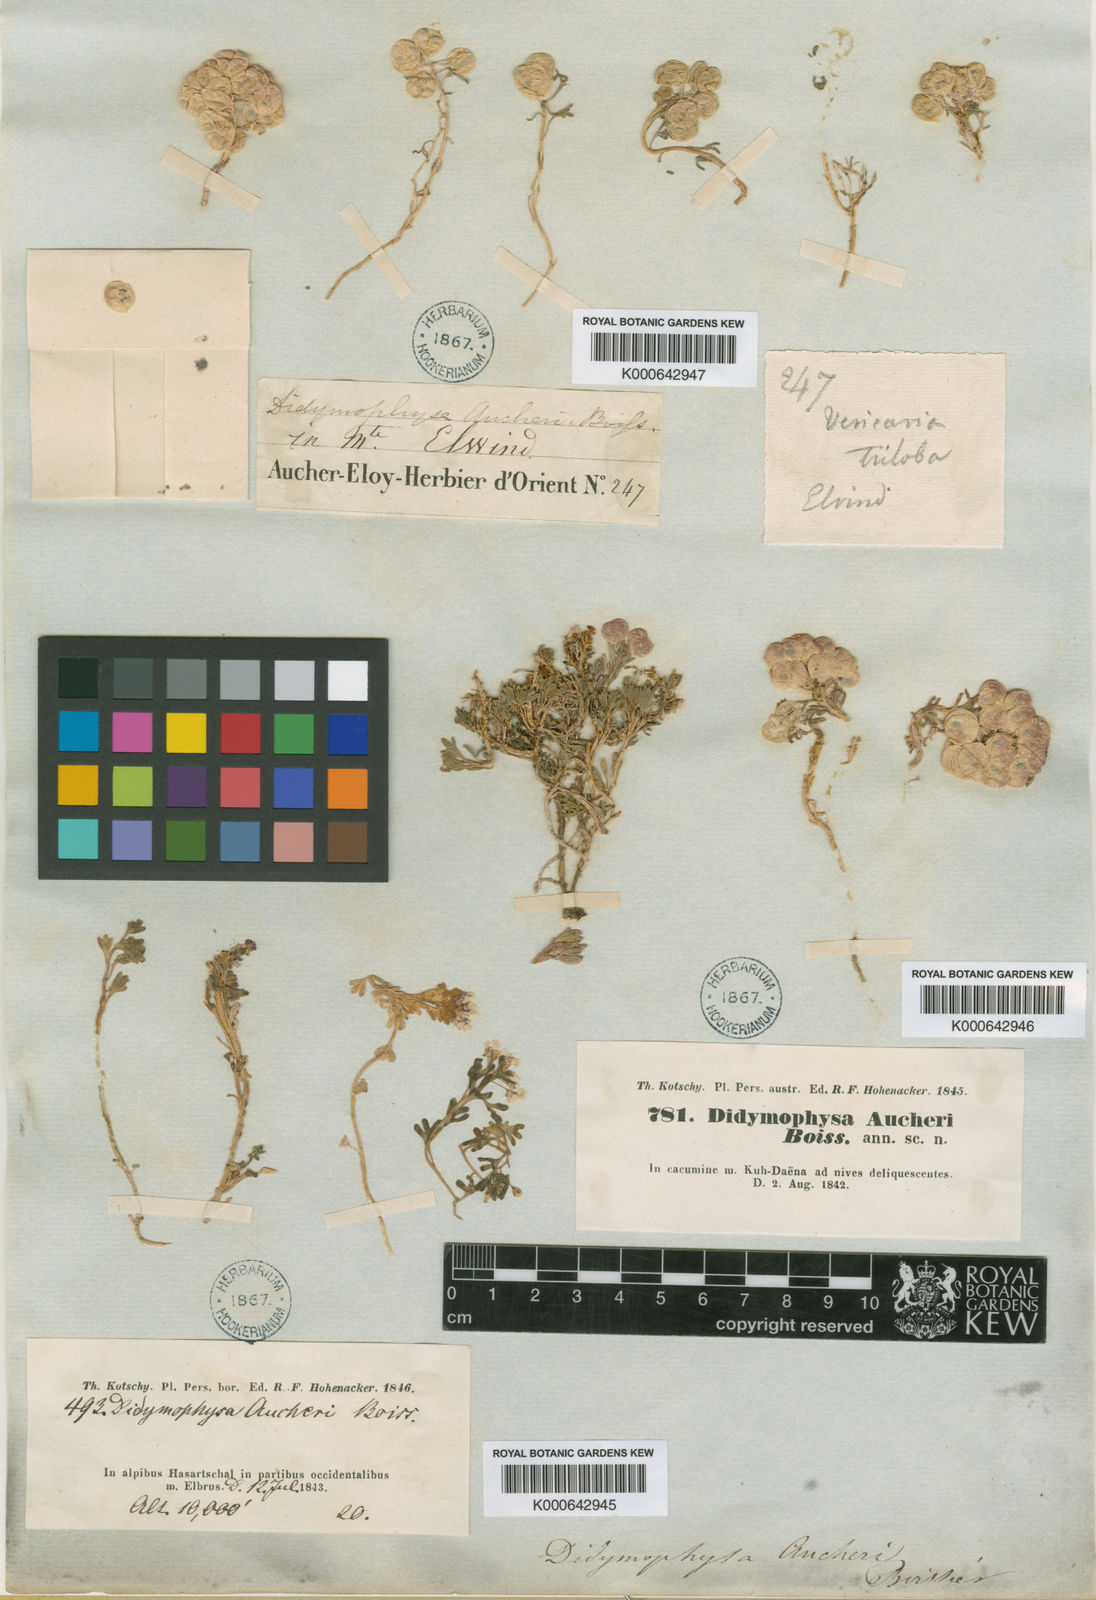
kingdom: Plantae
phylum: Tracheophyta
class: Magnoliopsida
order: Brassicales
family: Brassicaceae
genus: Didymophysa
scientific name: Didymophysa aucheri
